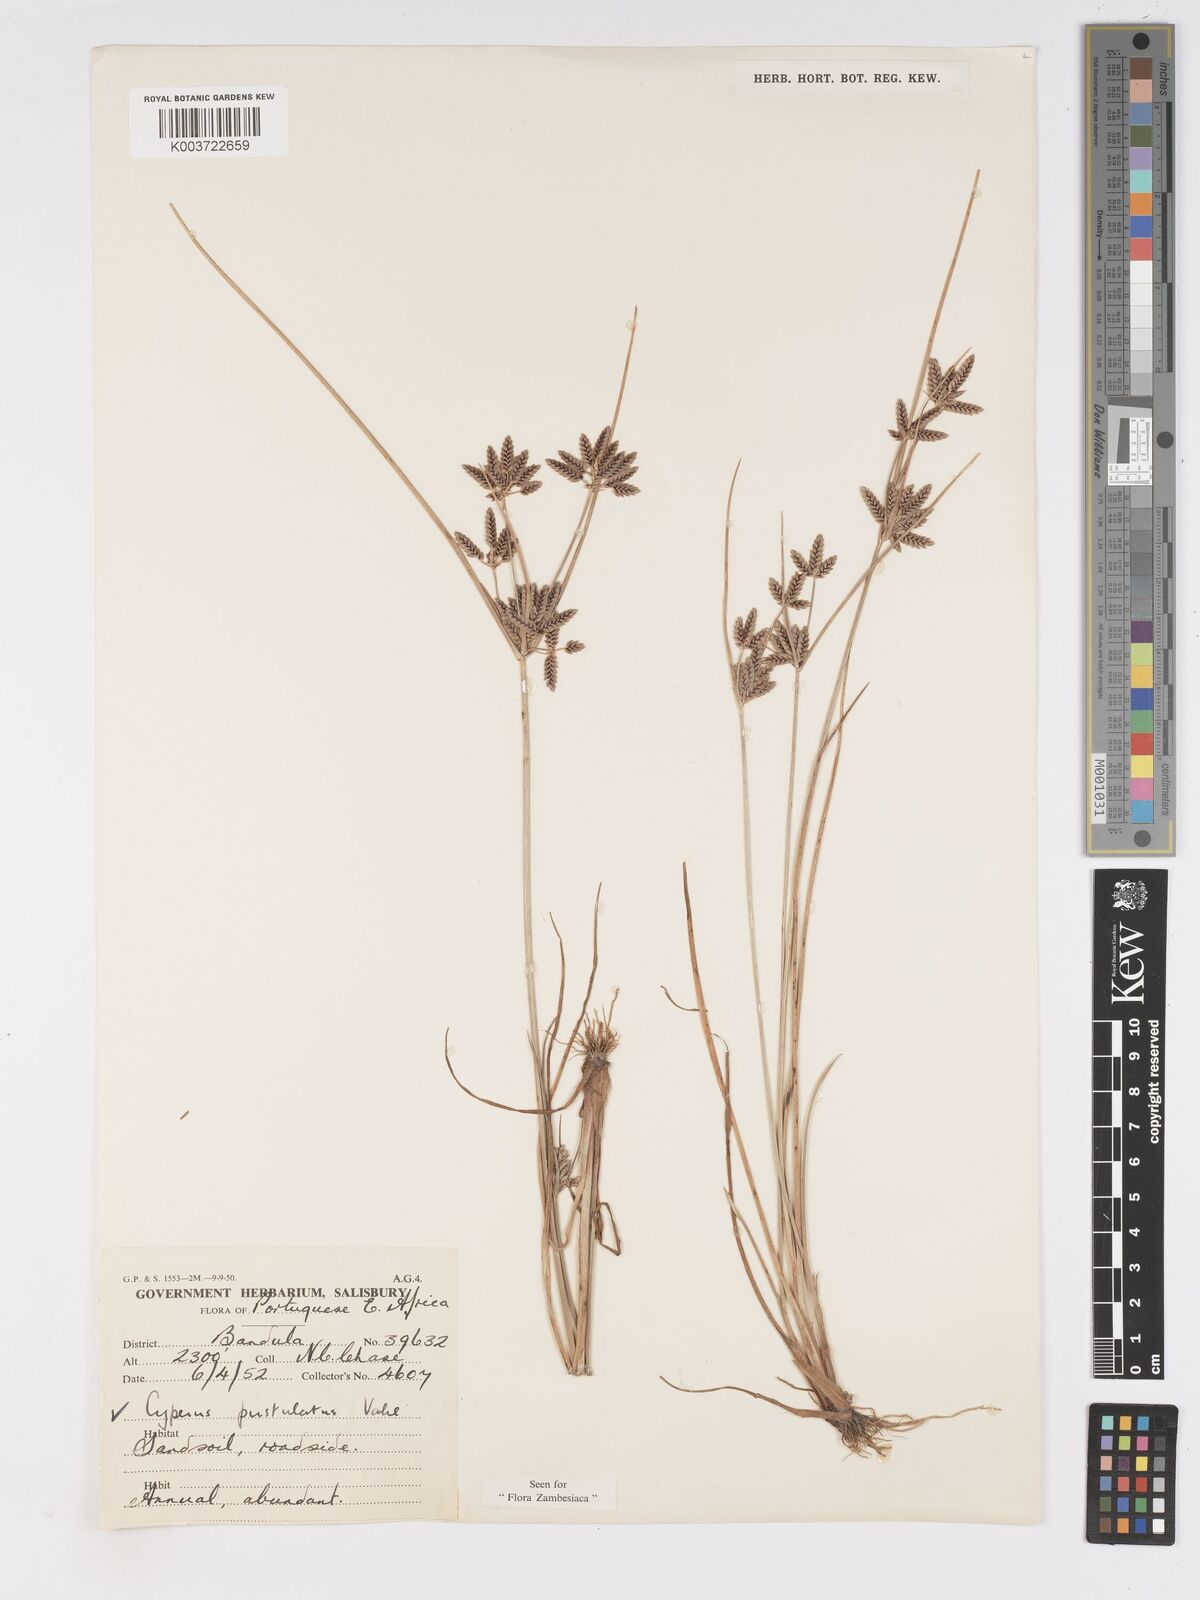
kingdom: Plantae
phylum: Tracheophyta
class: Liliopsida
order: Poales
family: Cyperaceae
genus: Cyperus
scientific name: Cyperus pustulatus
